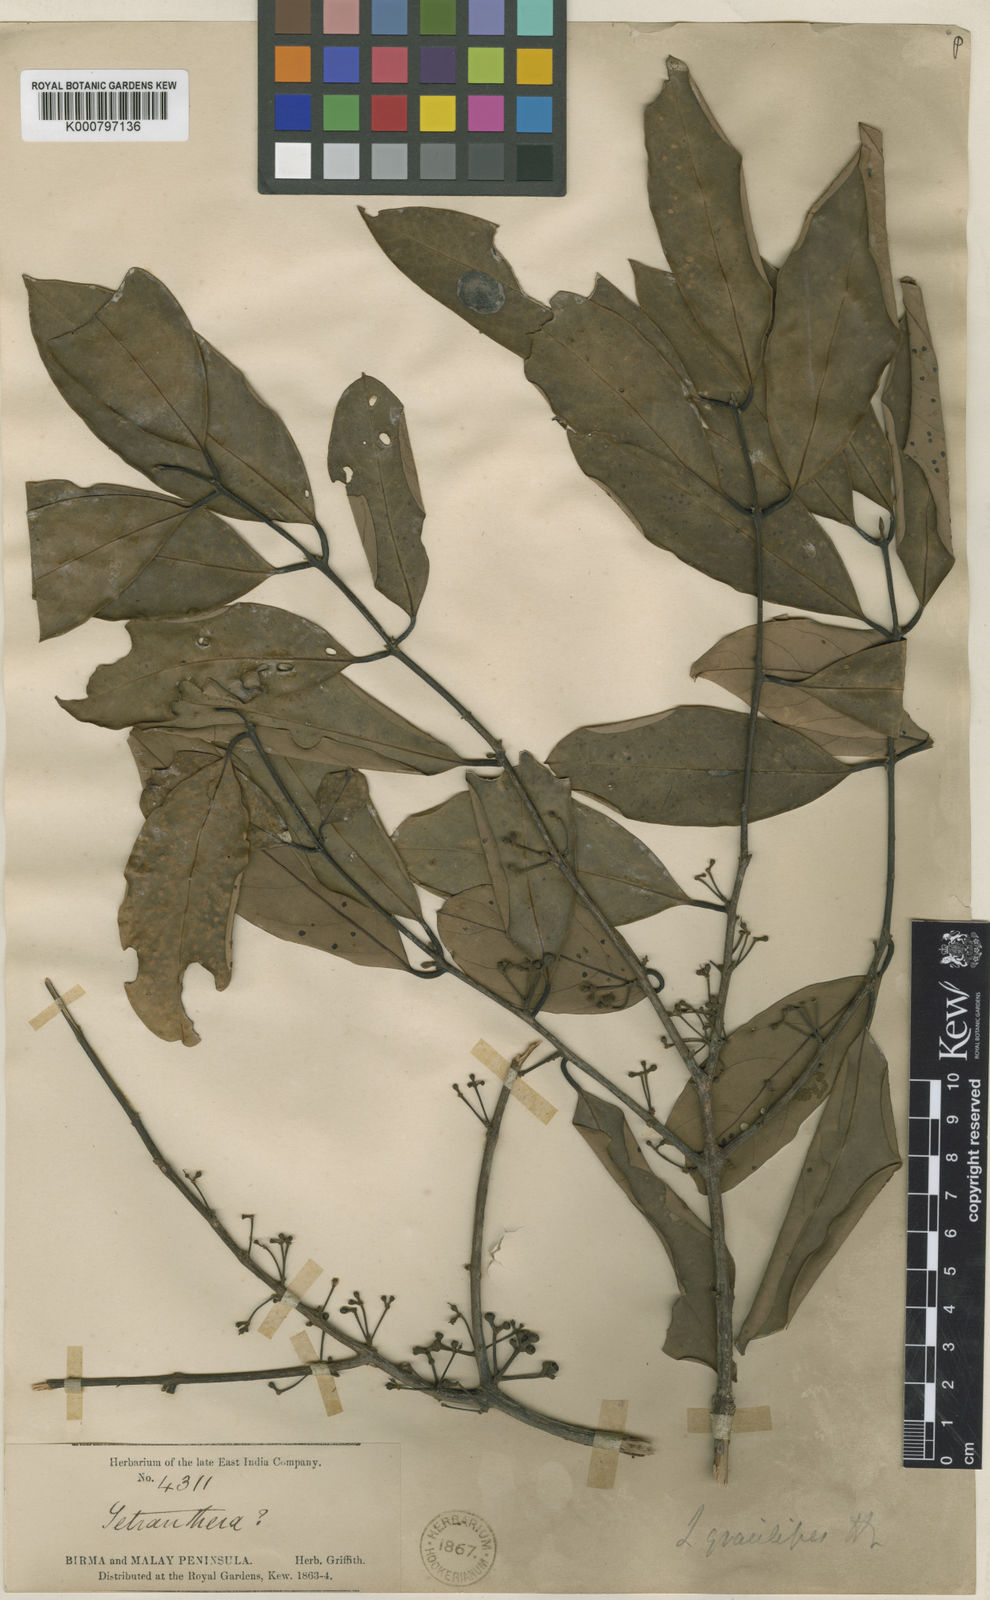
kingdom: Plantae
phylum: Tracheophyta
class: Magnoliopsida
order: Laurales
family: Lauraceae
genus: Litsea
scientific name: Litsea gracilipes
